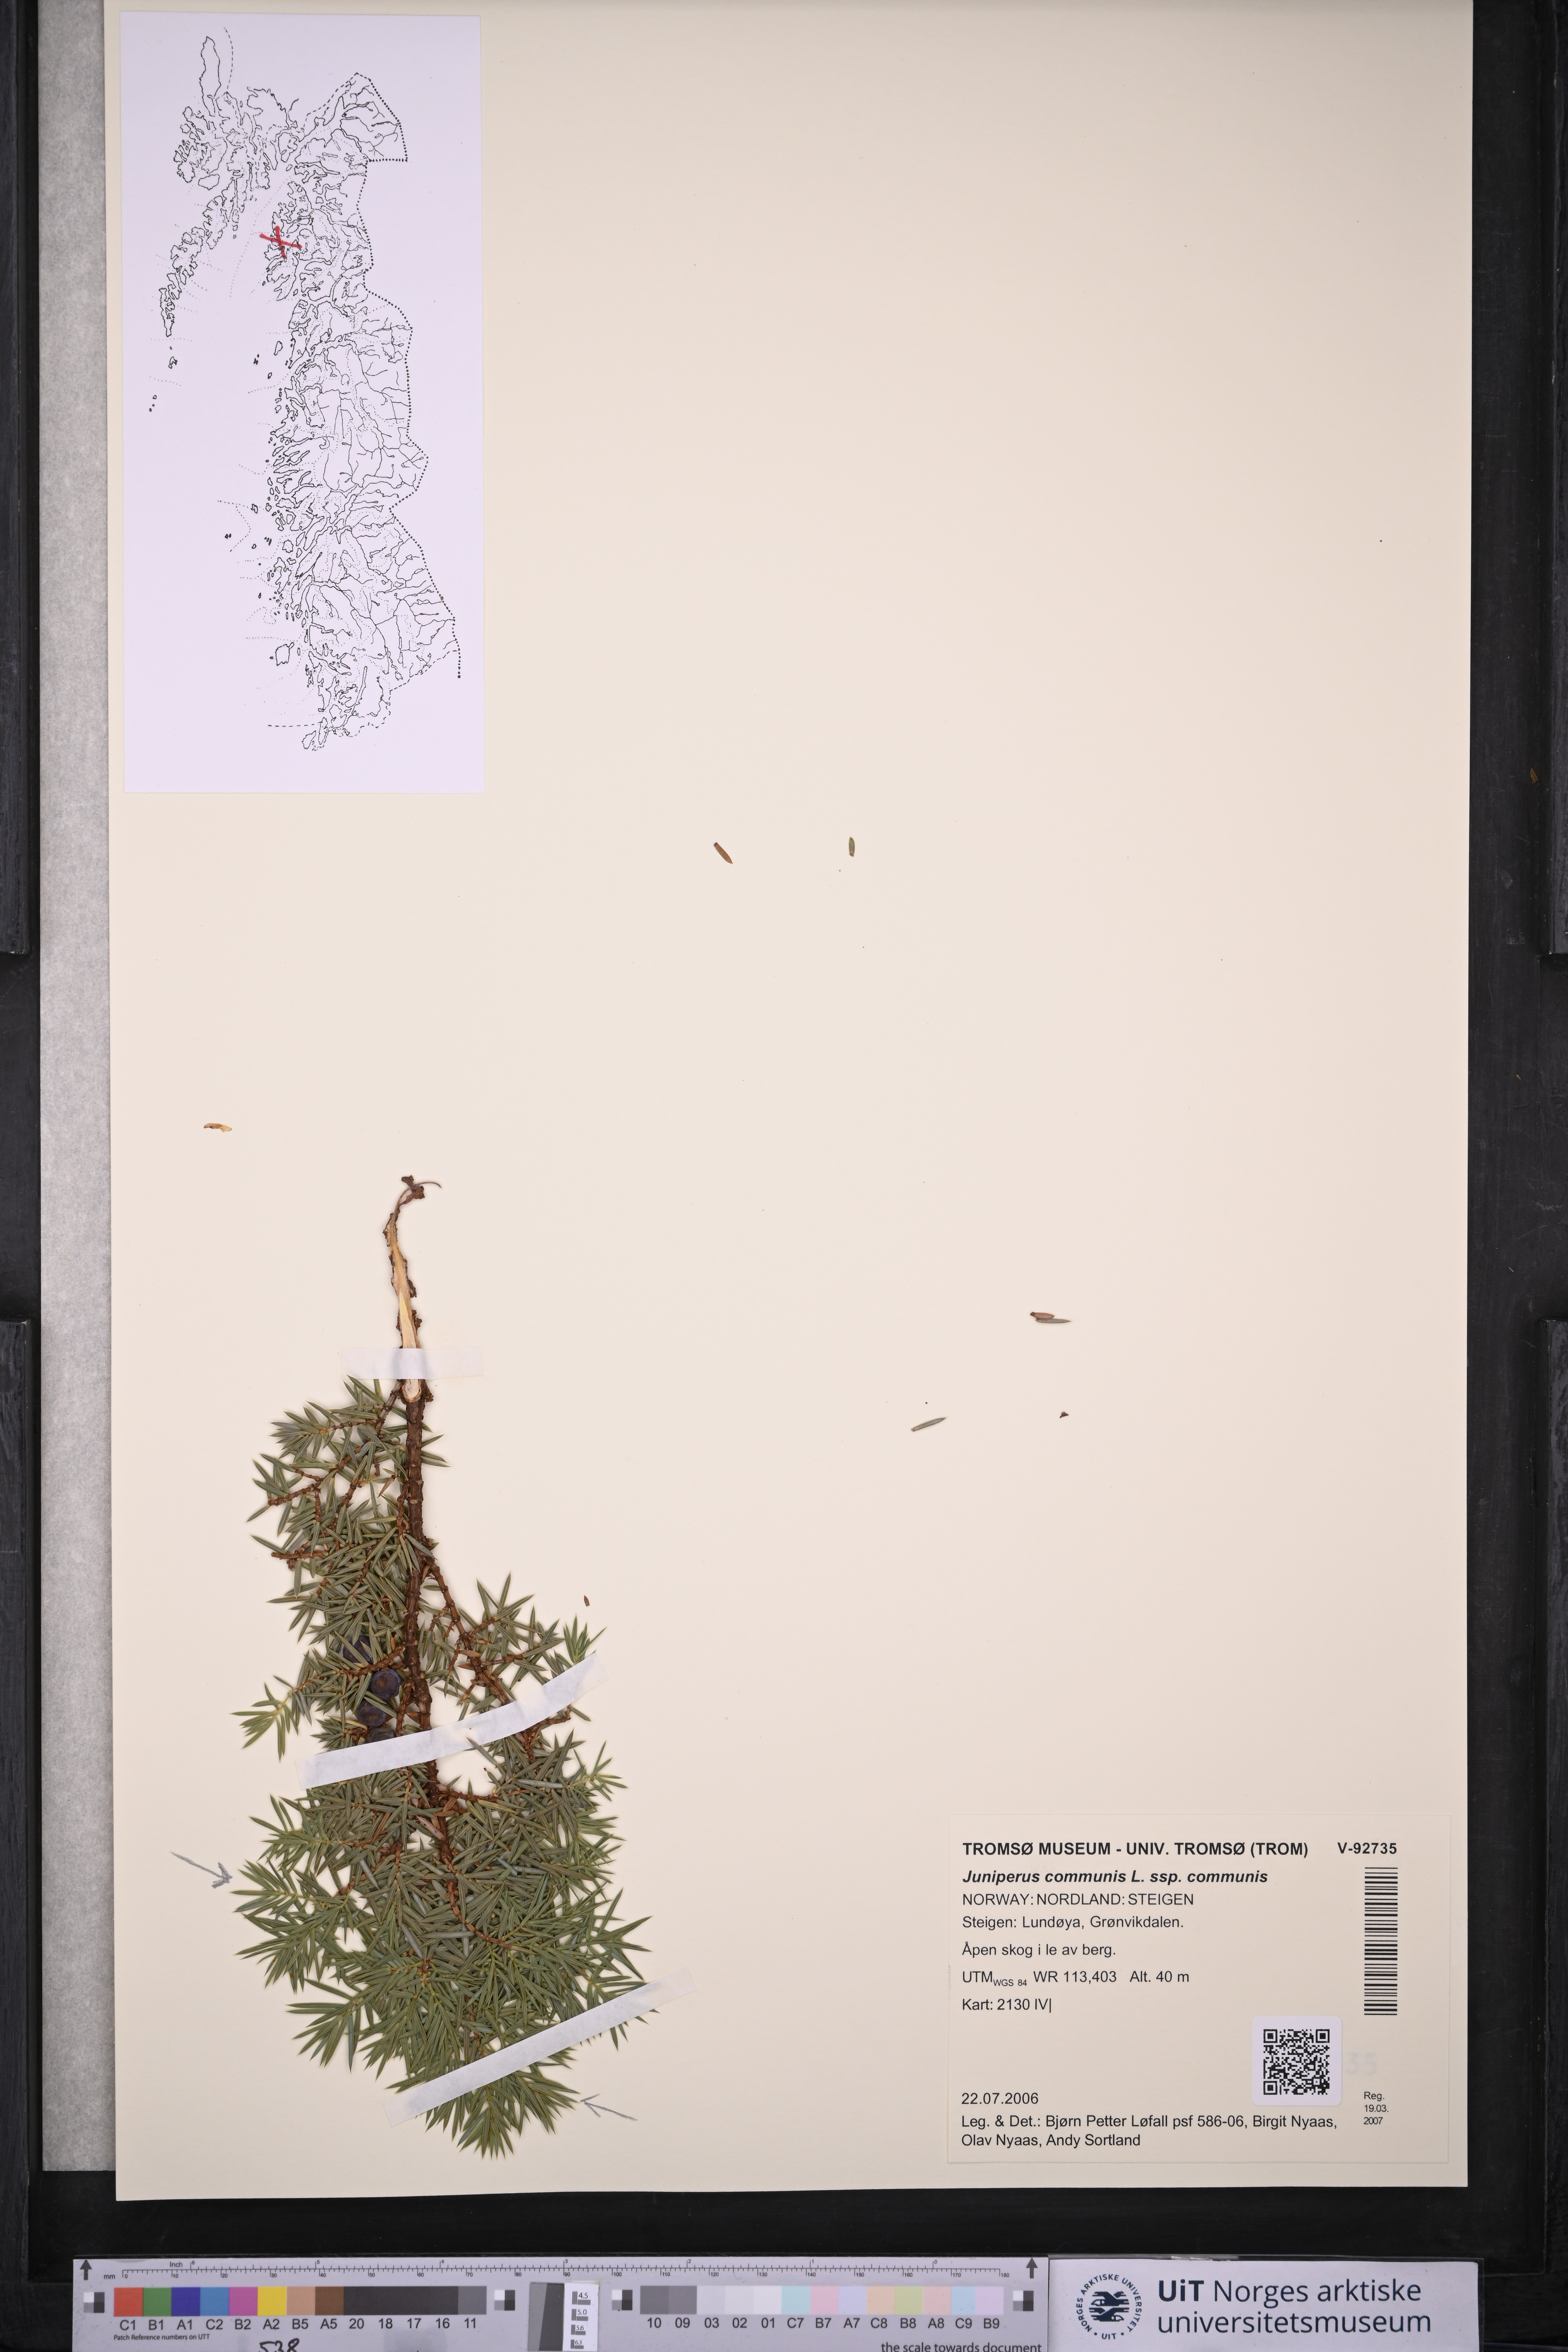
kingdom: Plantae
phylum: Tracheophyta
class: Pinopsida
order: Pinales
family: Cupressaceae
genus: Juniperus
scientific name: Juniperus communis
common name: Common juniper
